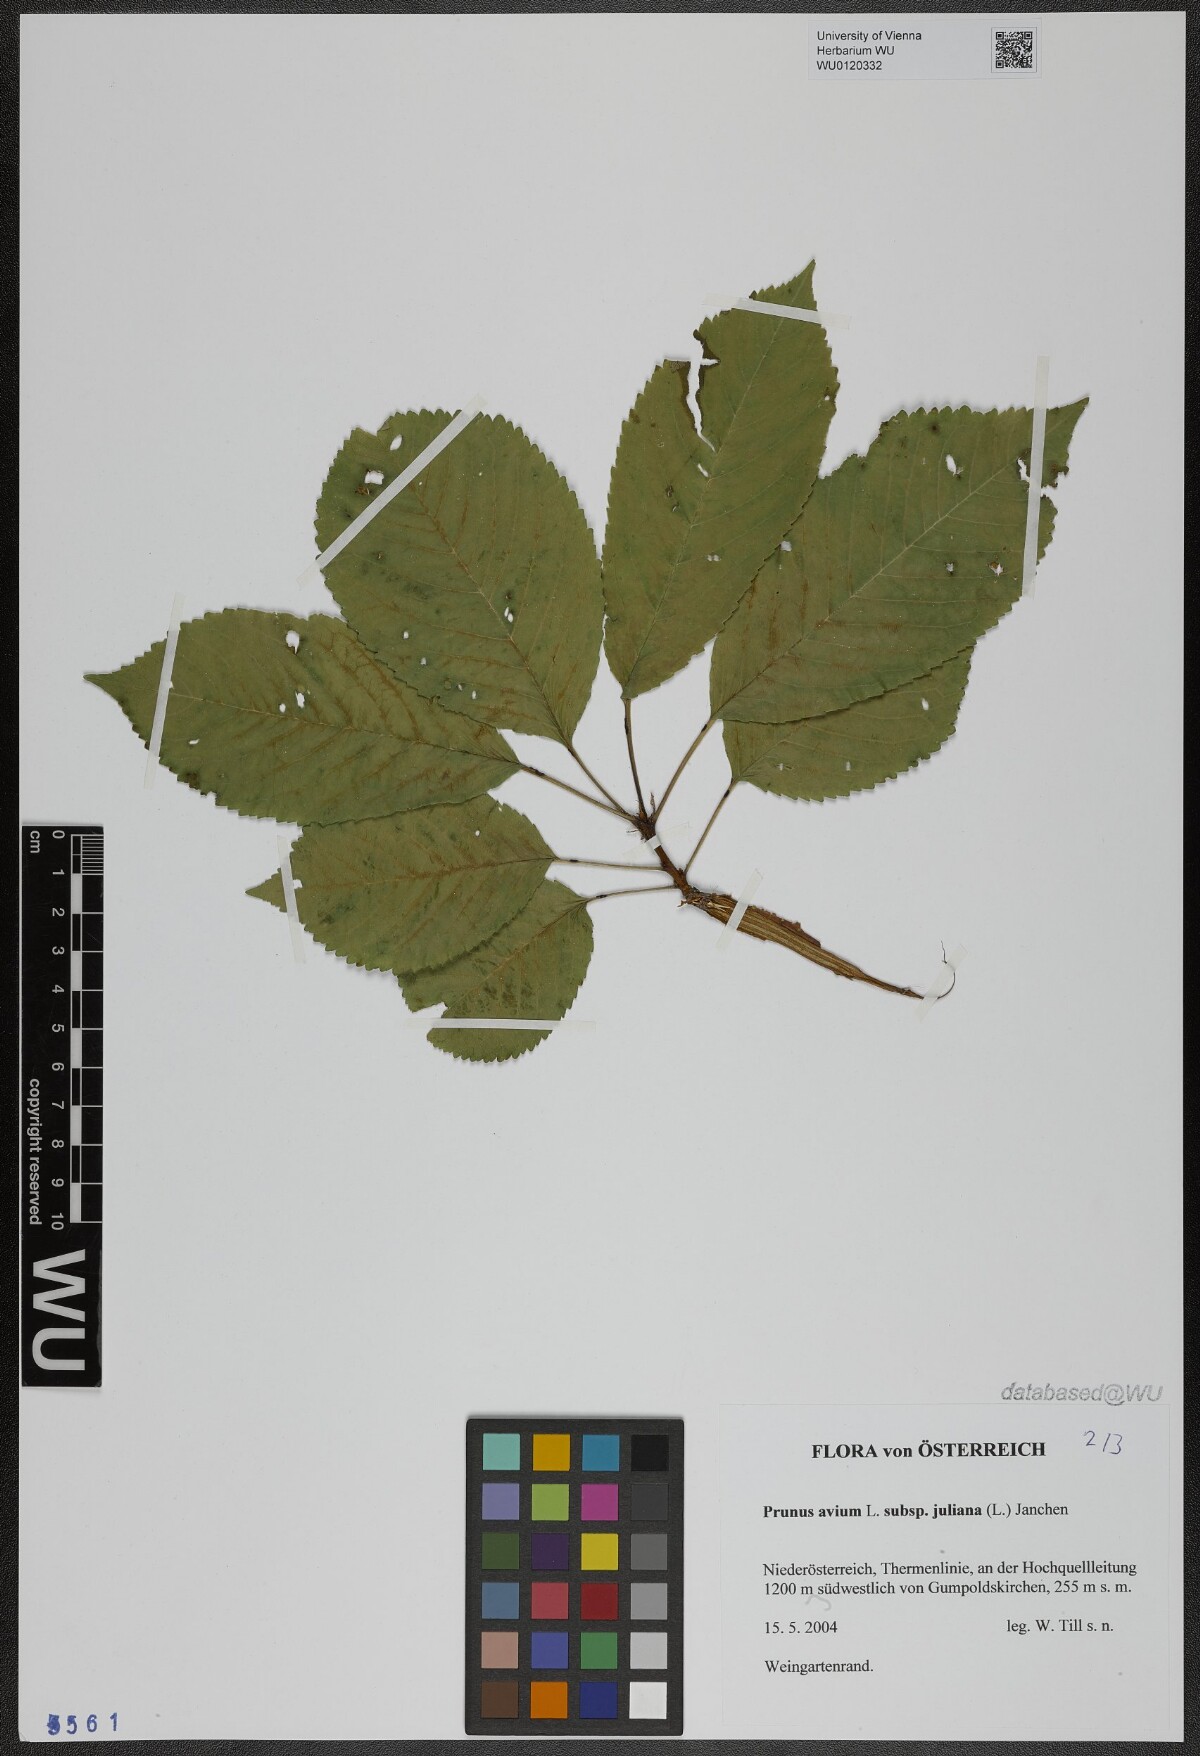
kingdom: Plantae
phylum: Tracheophyta
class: Magnoliopsida
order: Rosales
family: Rosaceae
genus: Prunus
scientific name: Prunus avium
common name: Sweet cherry
